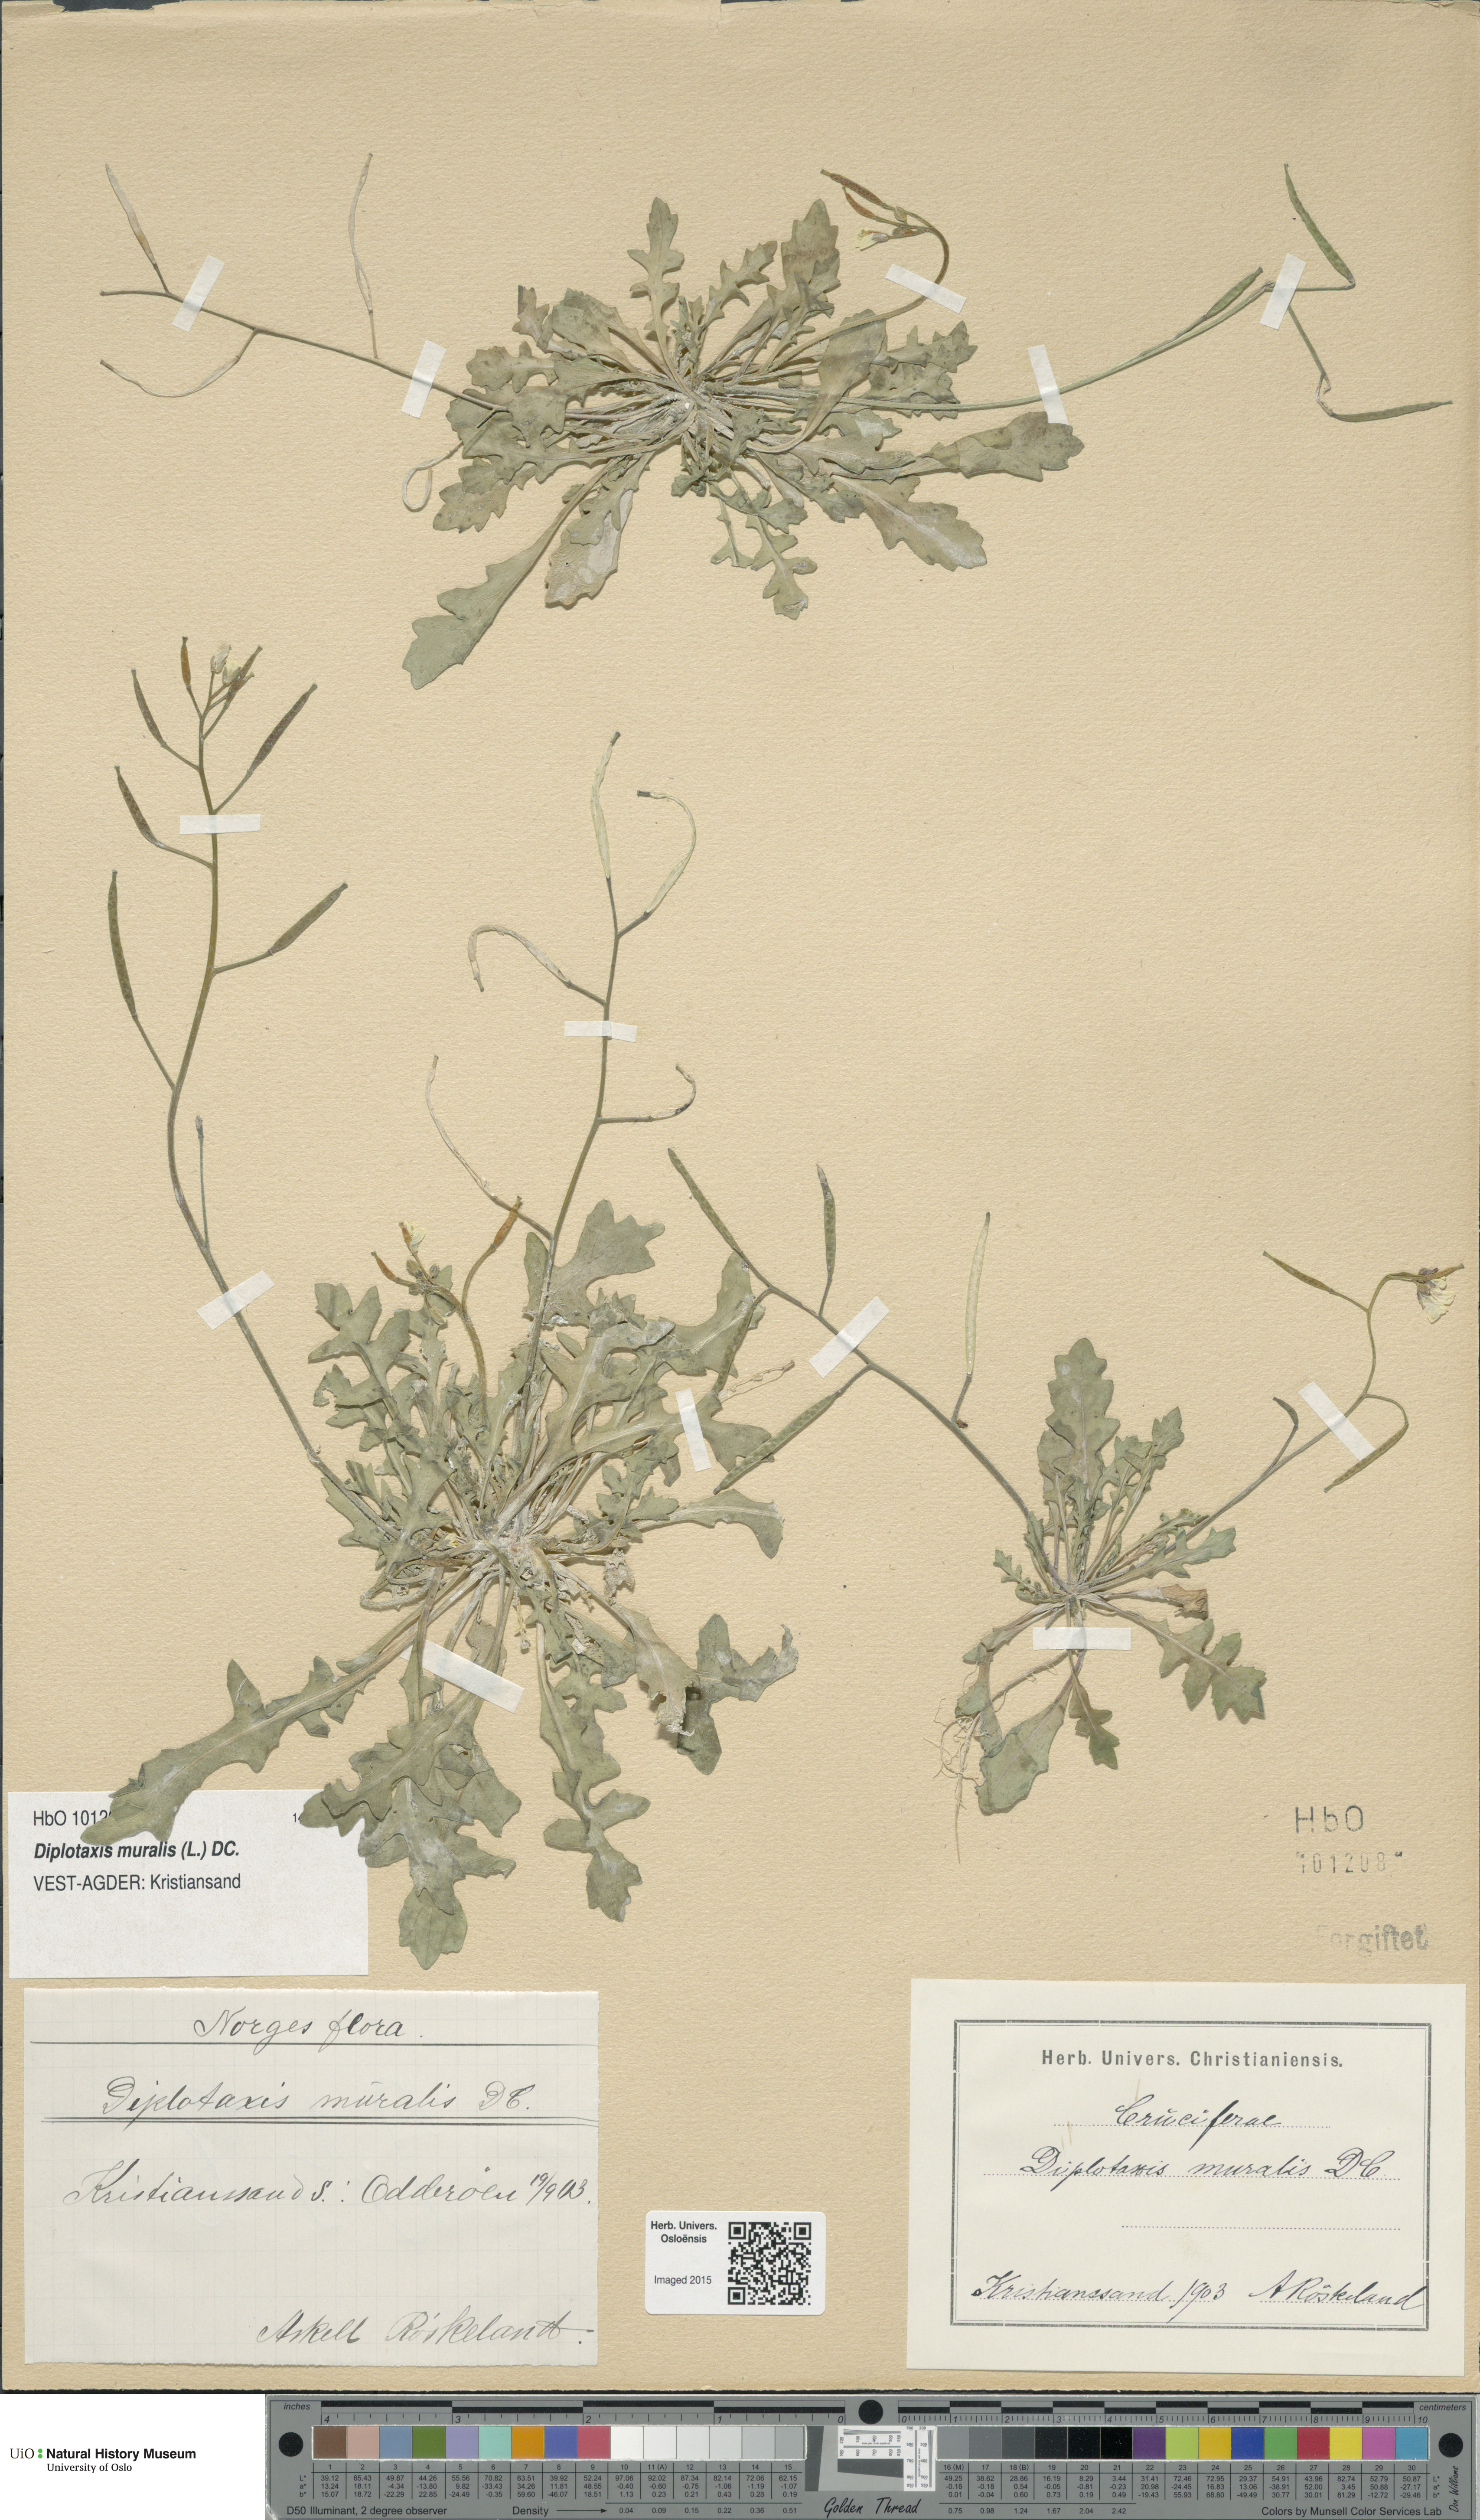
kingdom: Plantae
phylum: Tracheophyta
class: Magnoliopsida
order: Brassicales
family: Brassicaceae
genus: Diplotaxis
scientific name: Diplotaxis muralis
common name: Annual wall-rocket
